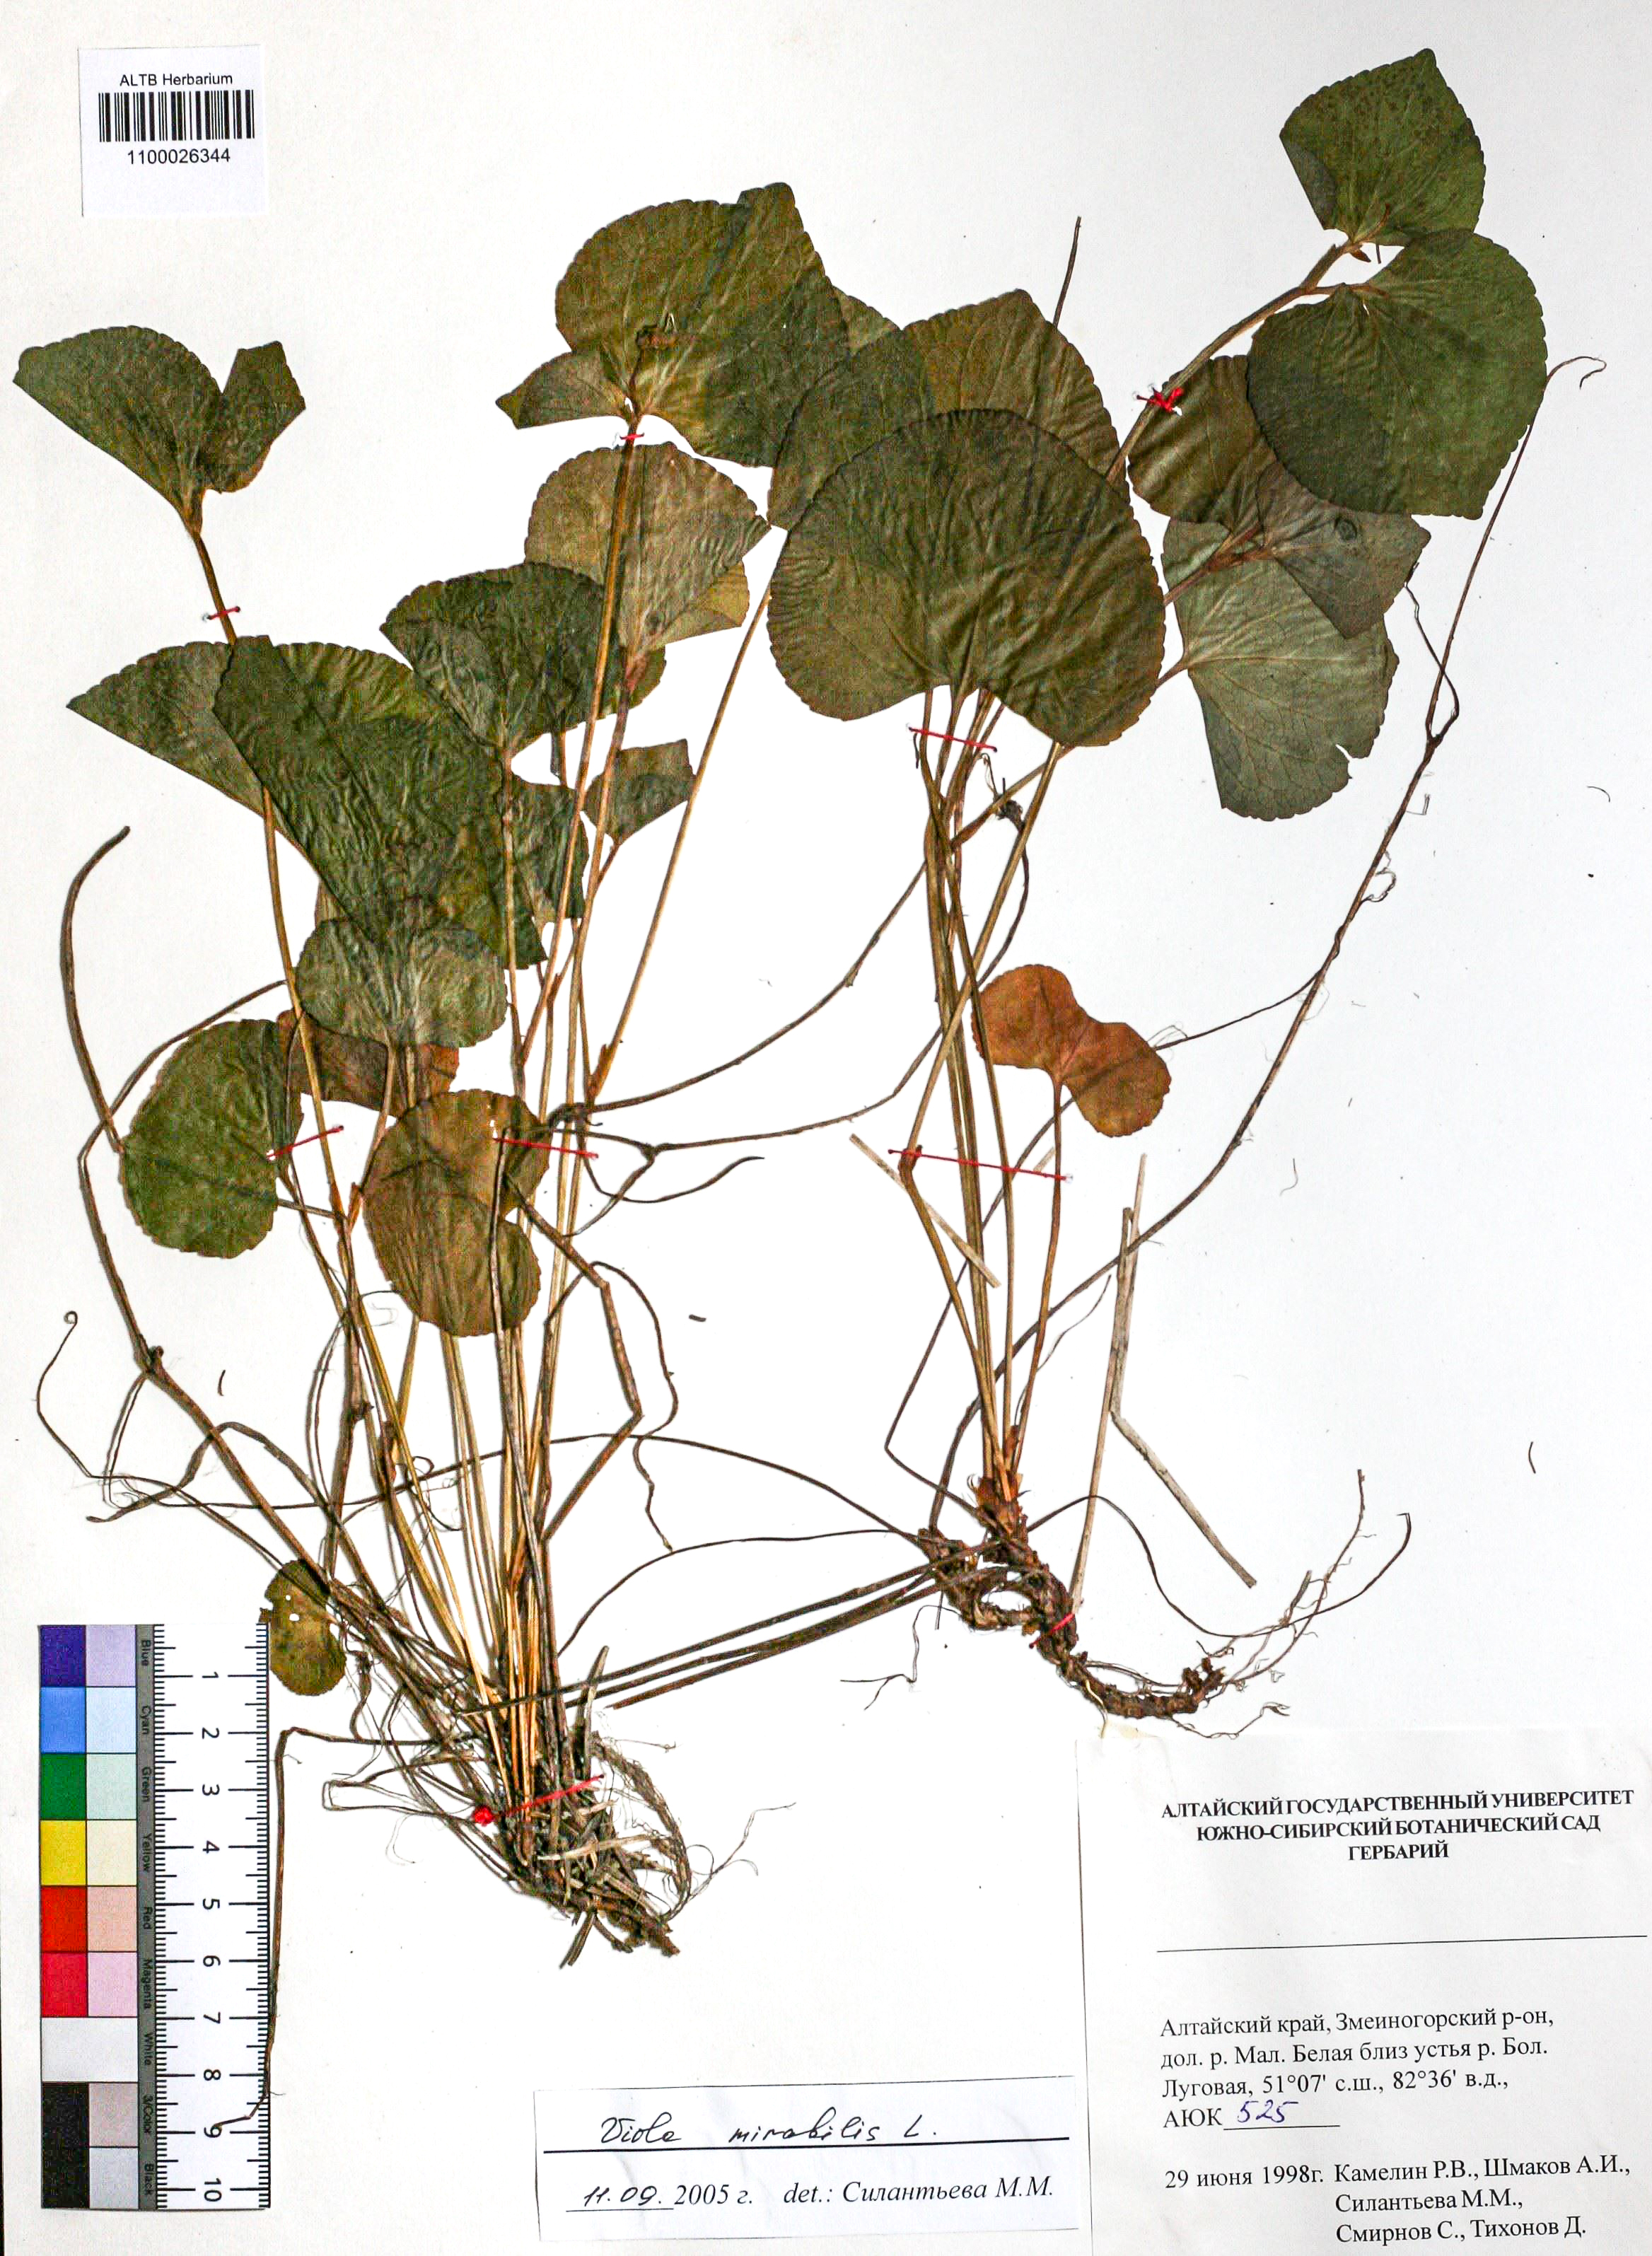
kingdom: Plantae
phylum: Tracheophyta
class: Magnoliopsida
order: Malpighiales
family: Violaceae
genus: Viola
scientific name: Viola mirabilis
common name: Wonder violet
